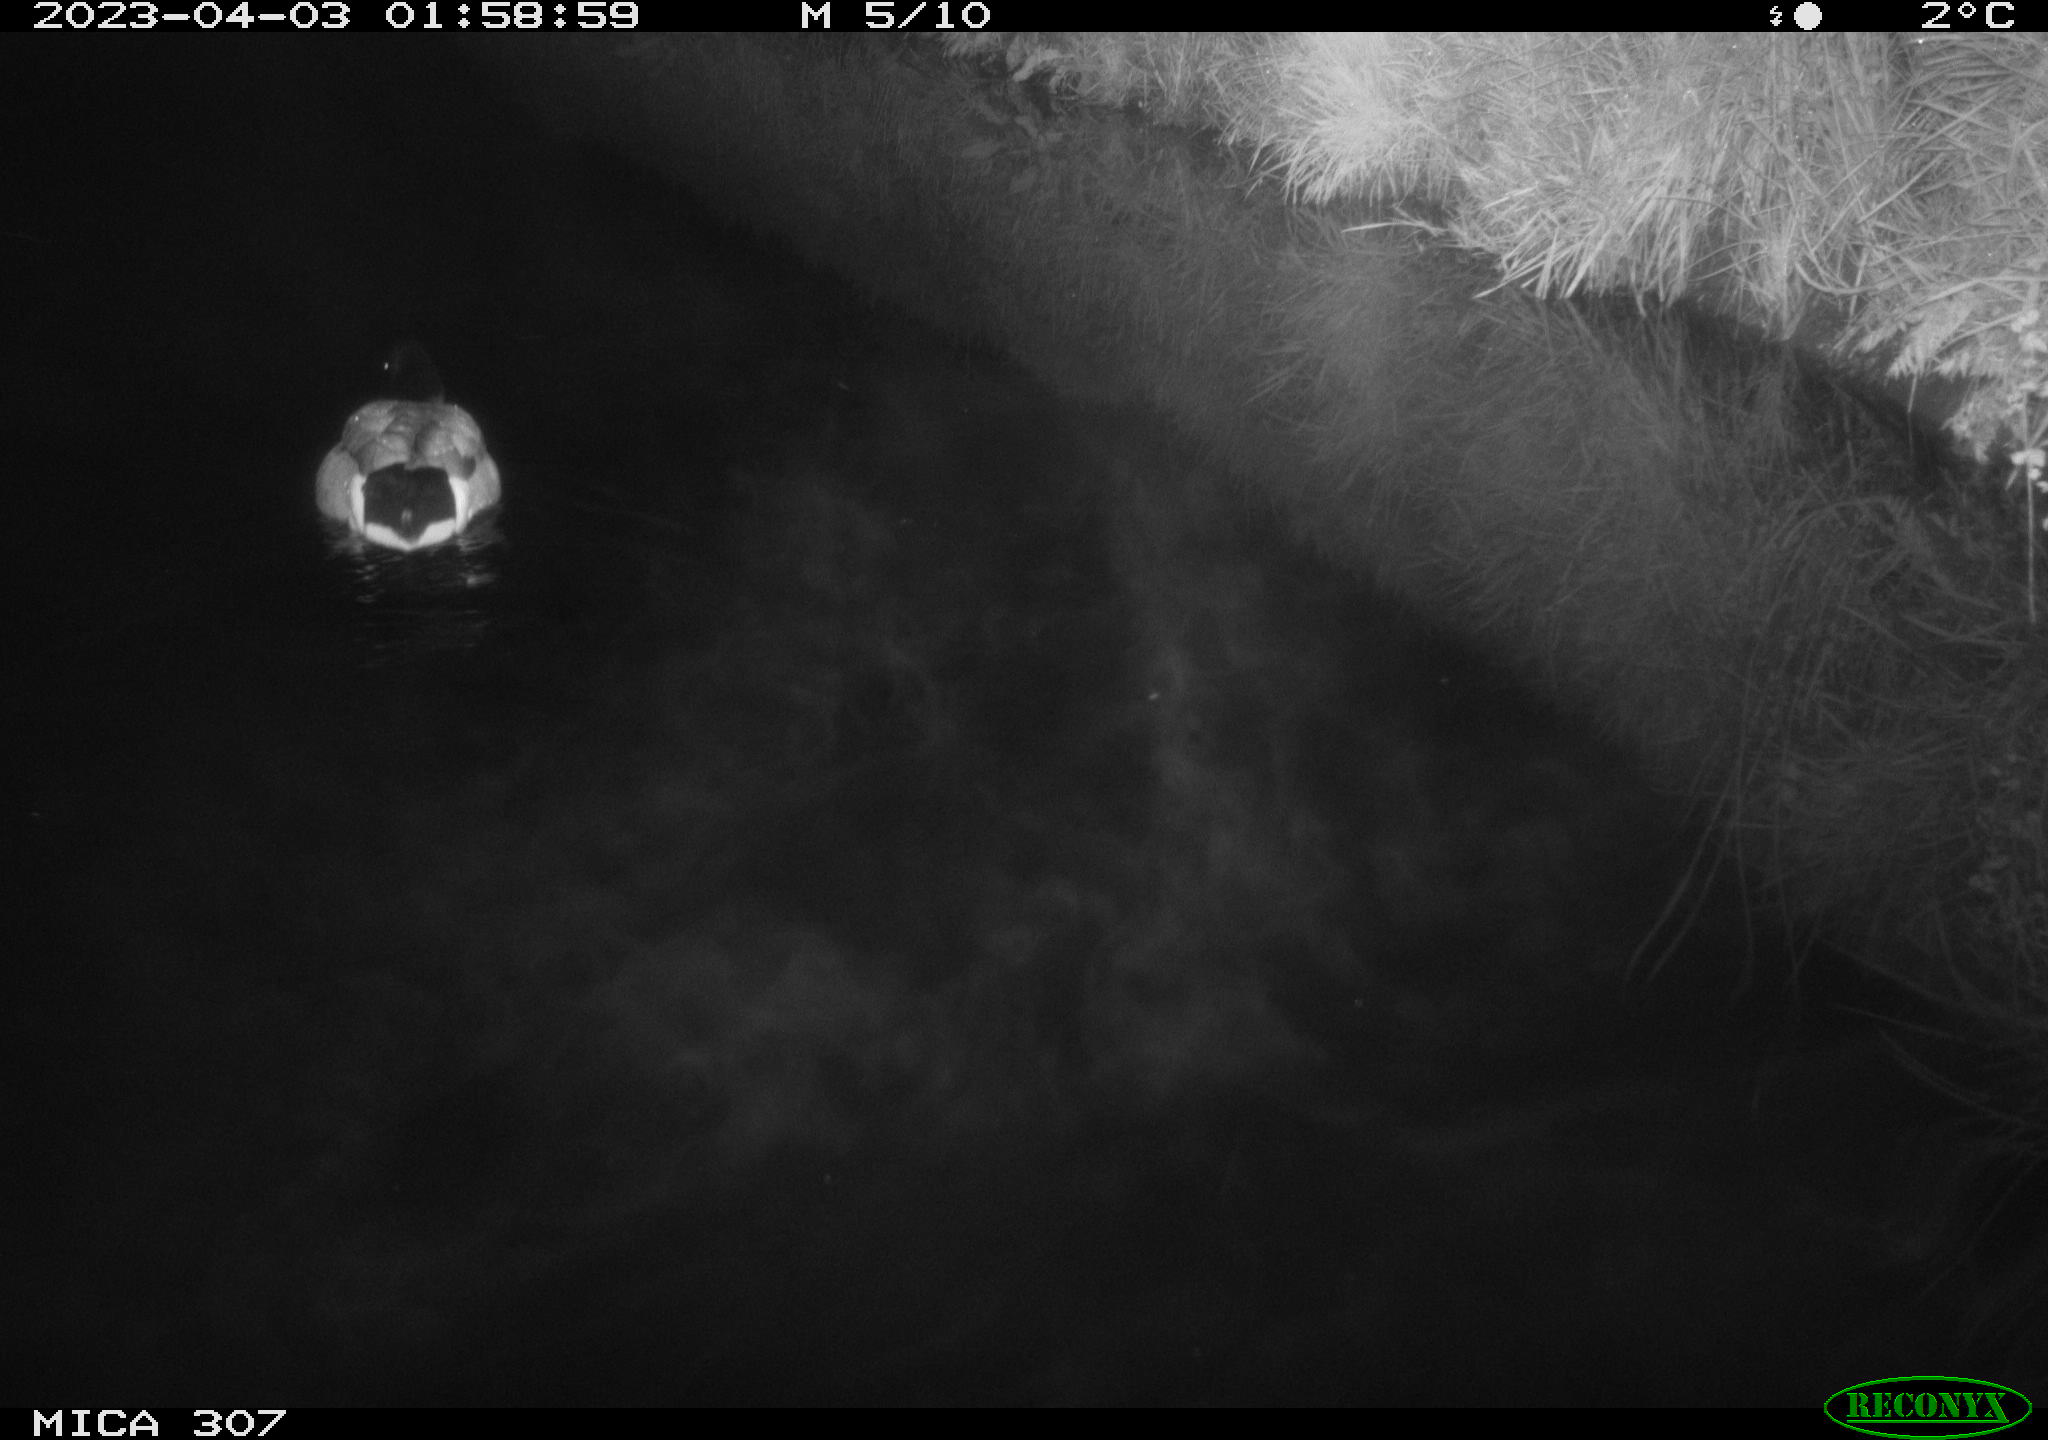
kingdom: Animalia
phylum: Chordata
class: Aves
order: Anseriformes
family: Anatidae
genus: Anas
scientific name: Anas
